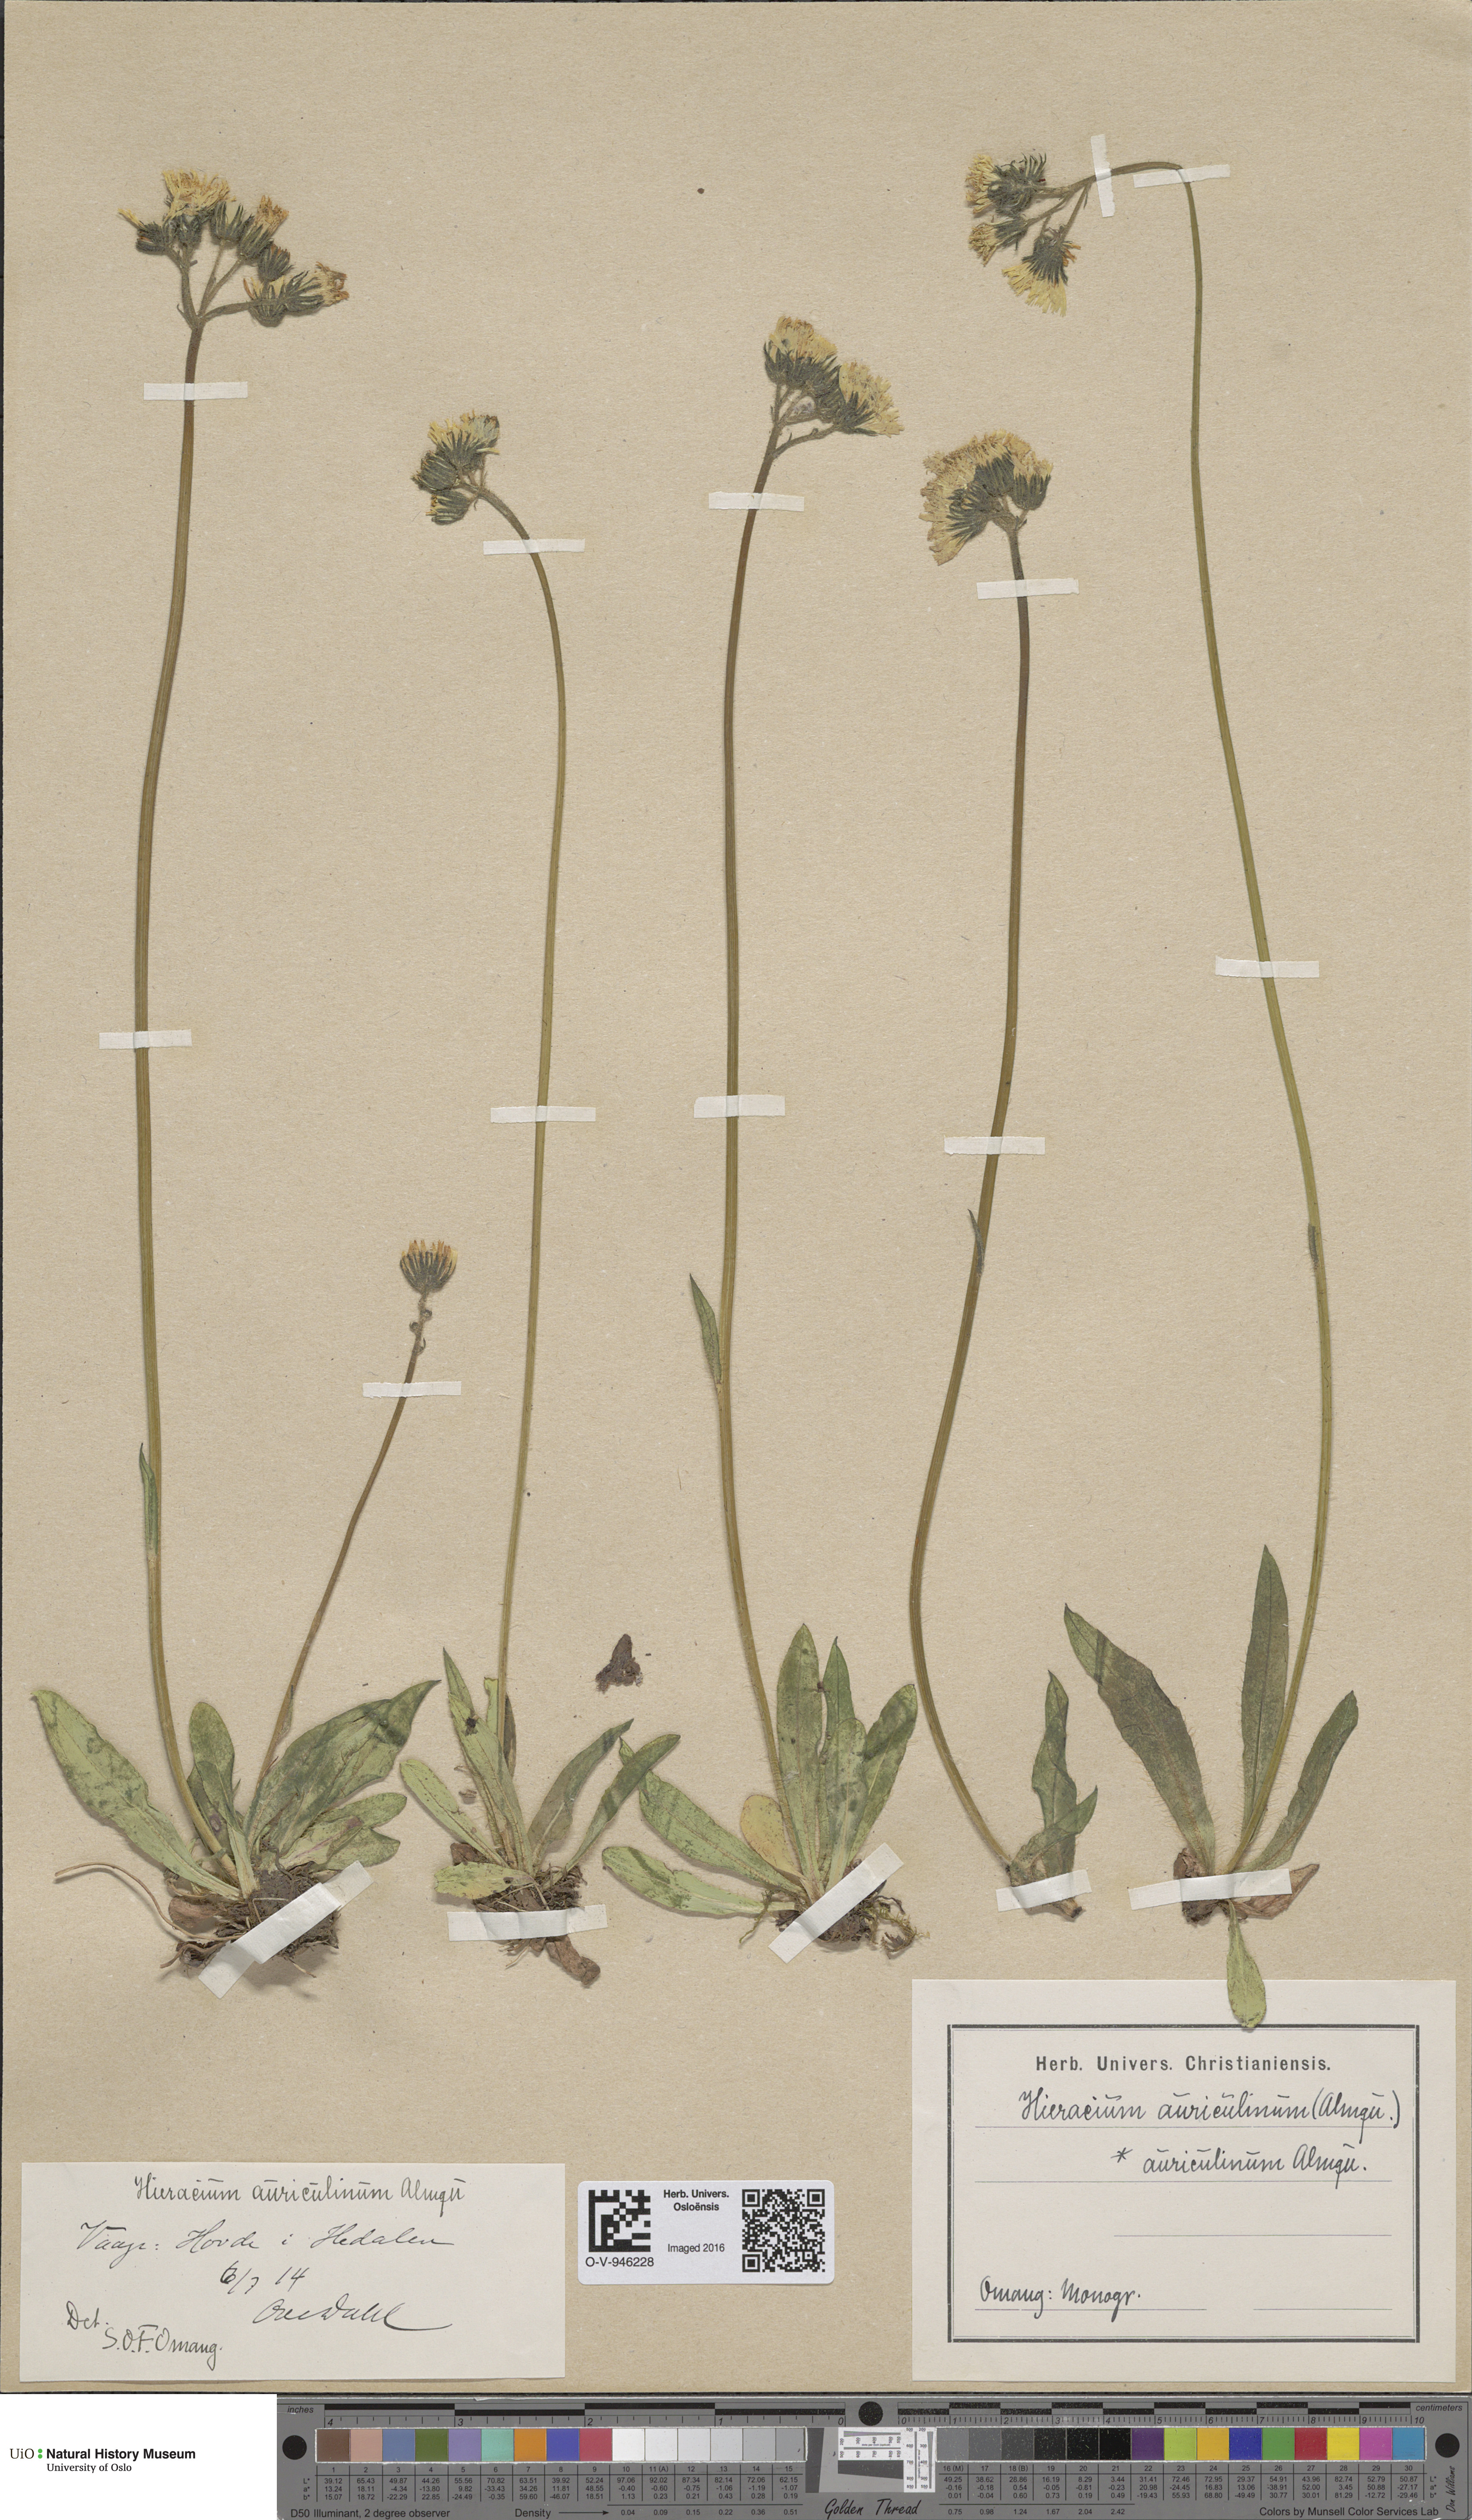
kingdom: Plantae
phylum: Tracheophyta
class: Magnoliopsida
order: Asterales
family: Asteraceae
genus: Pilosella
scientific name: Pilosella dubia
